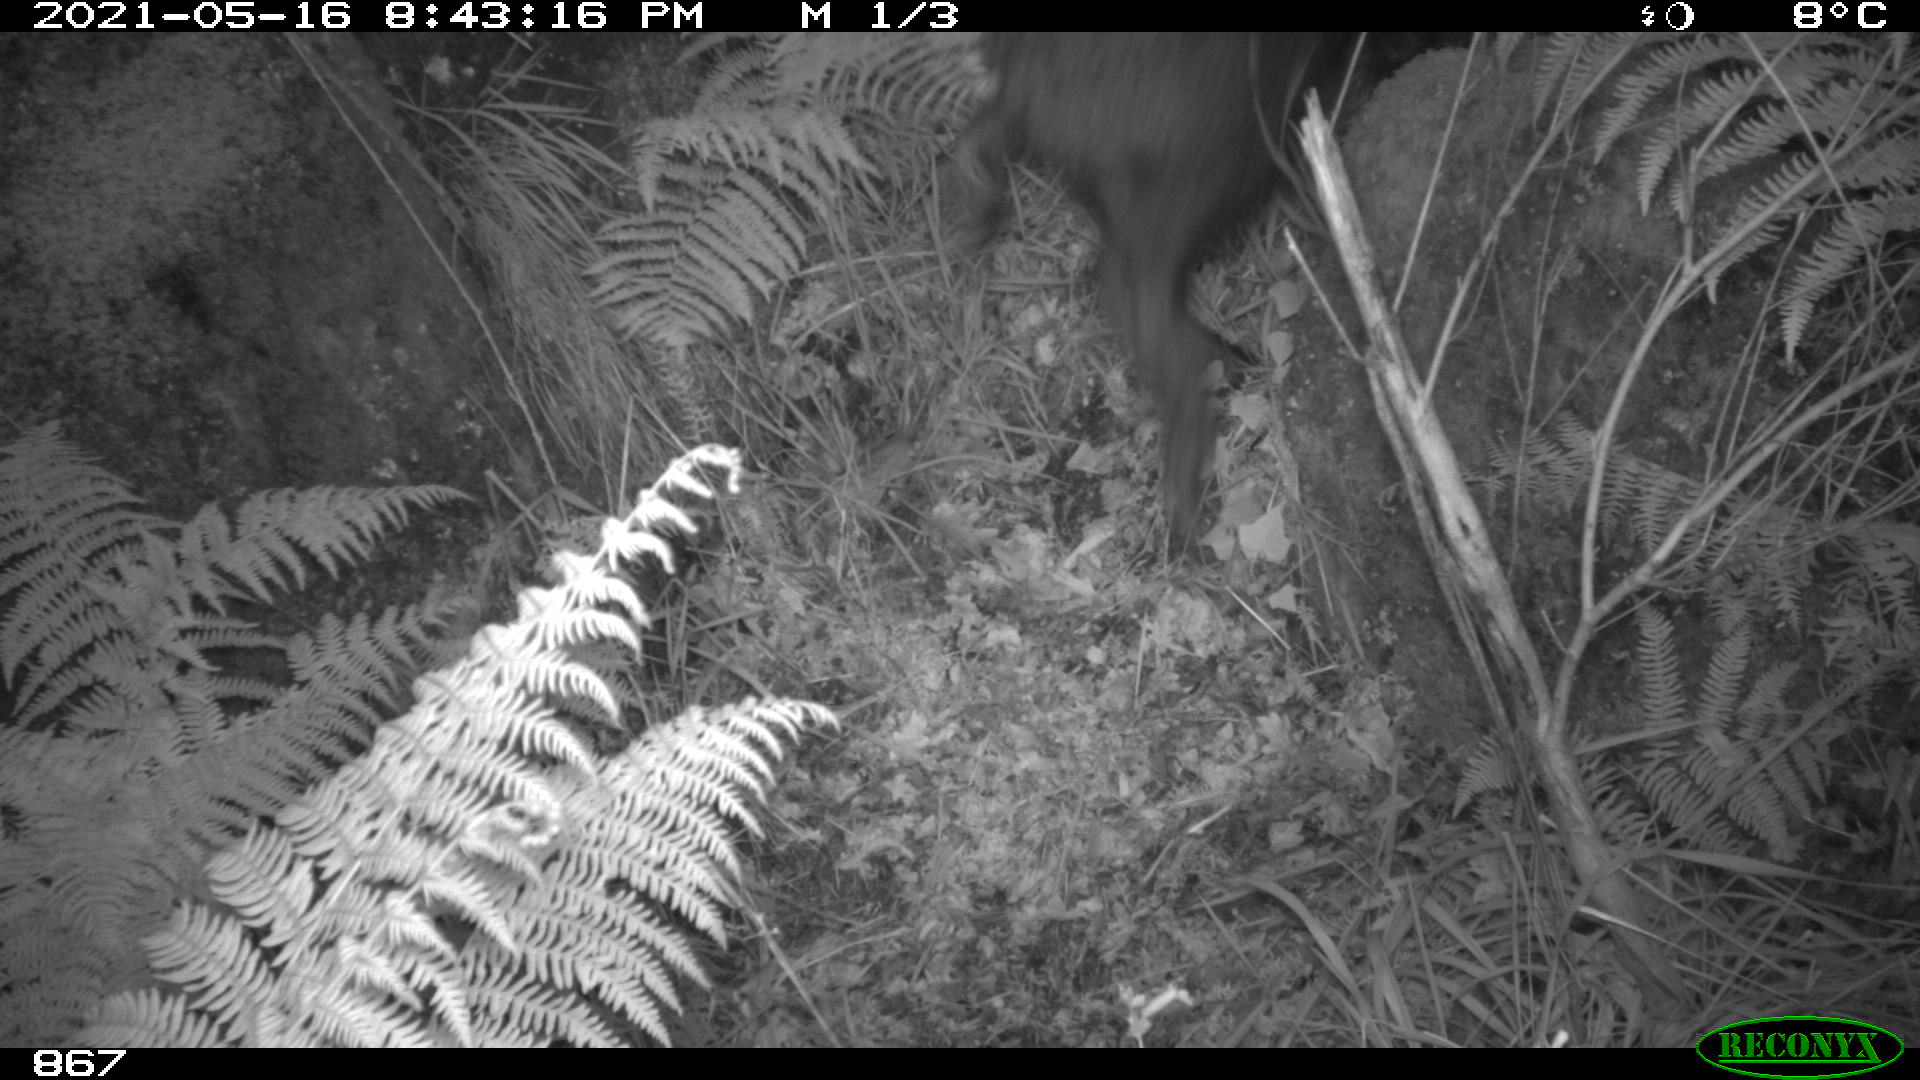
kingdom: Animalia
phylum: Chordata
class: Mammalia
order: Artiodactyla
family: Suidae
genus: Sus
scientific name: Sus scrofa
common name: Wild boar
